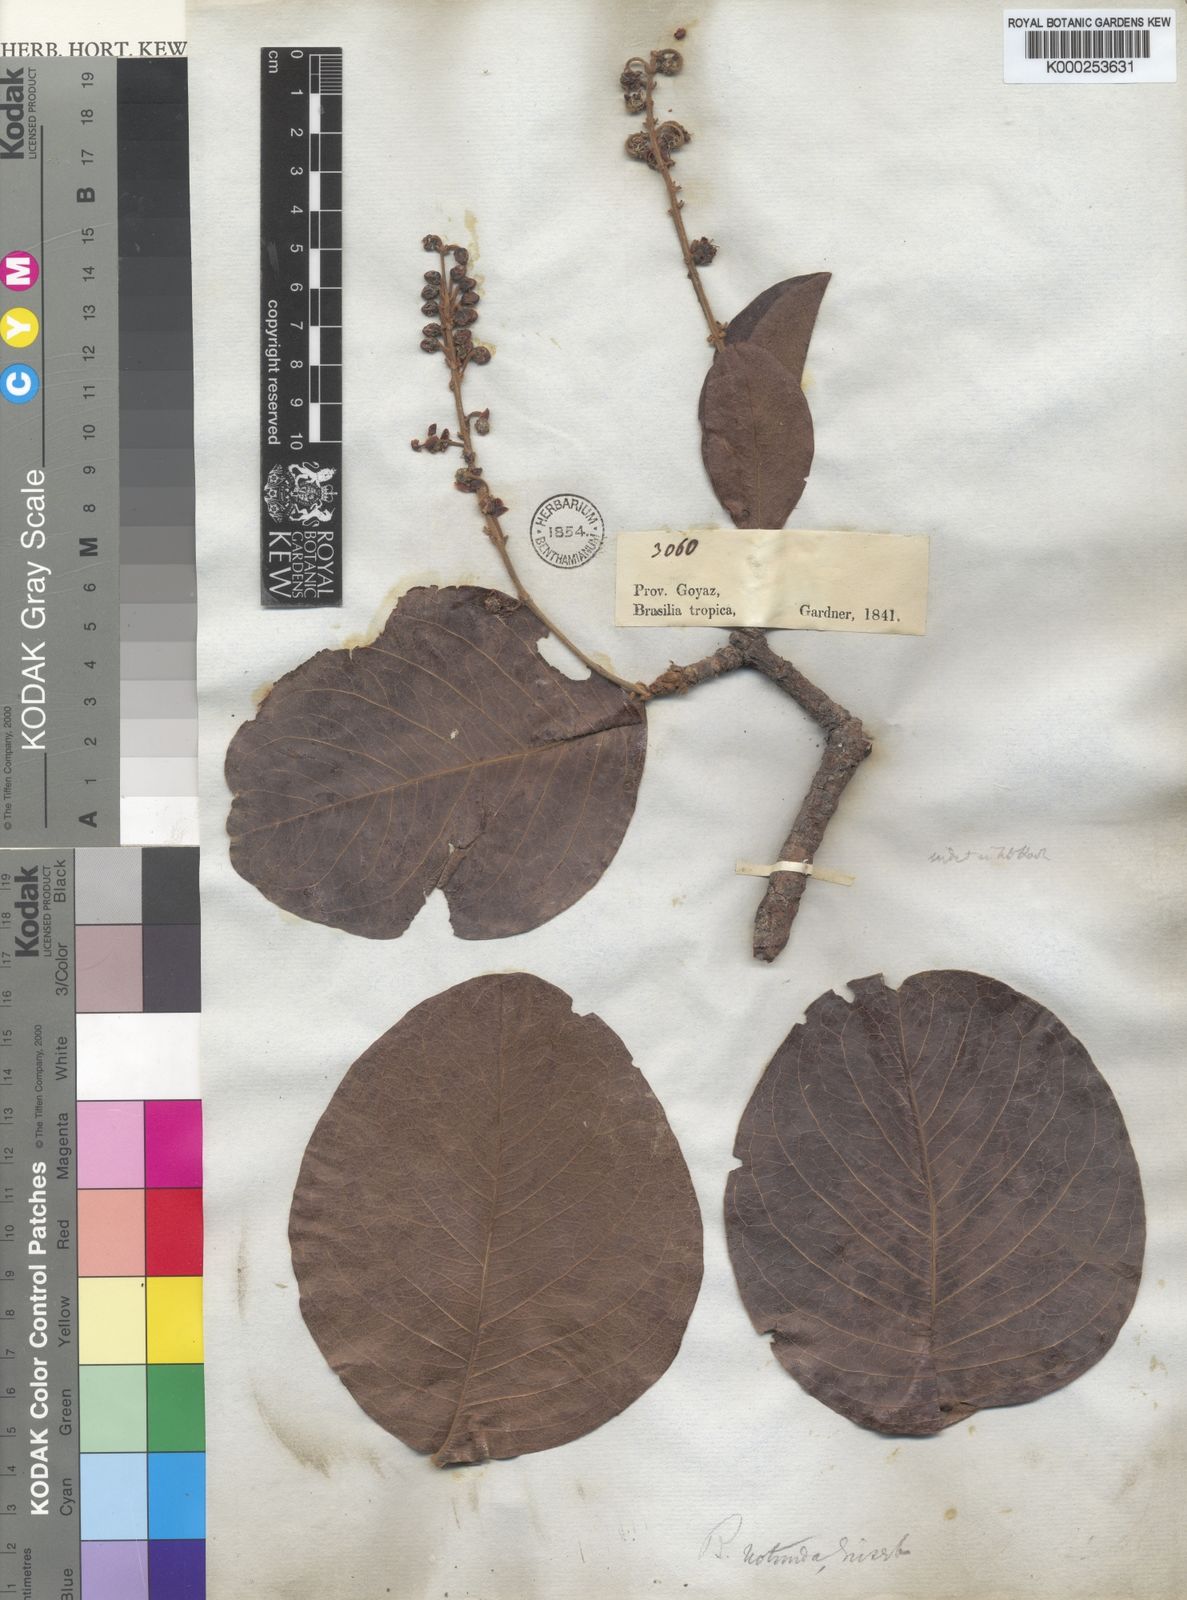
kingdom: Plantae
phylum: Tracheophyta
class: Magnoliopsida
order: Malpighiales
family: Malpighiaceae
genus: Byrsonima
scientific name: Byrsonima rotunda
